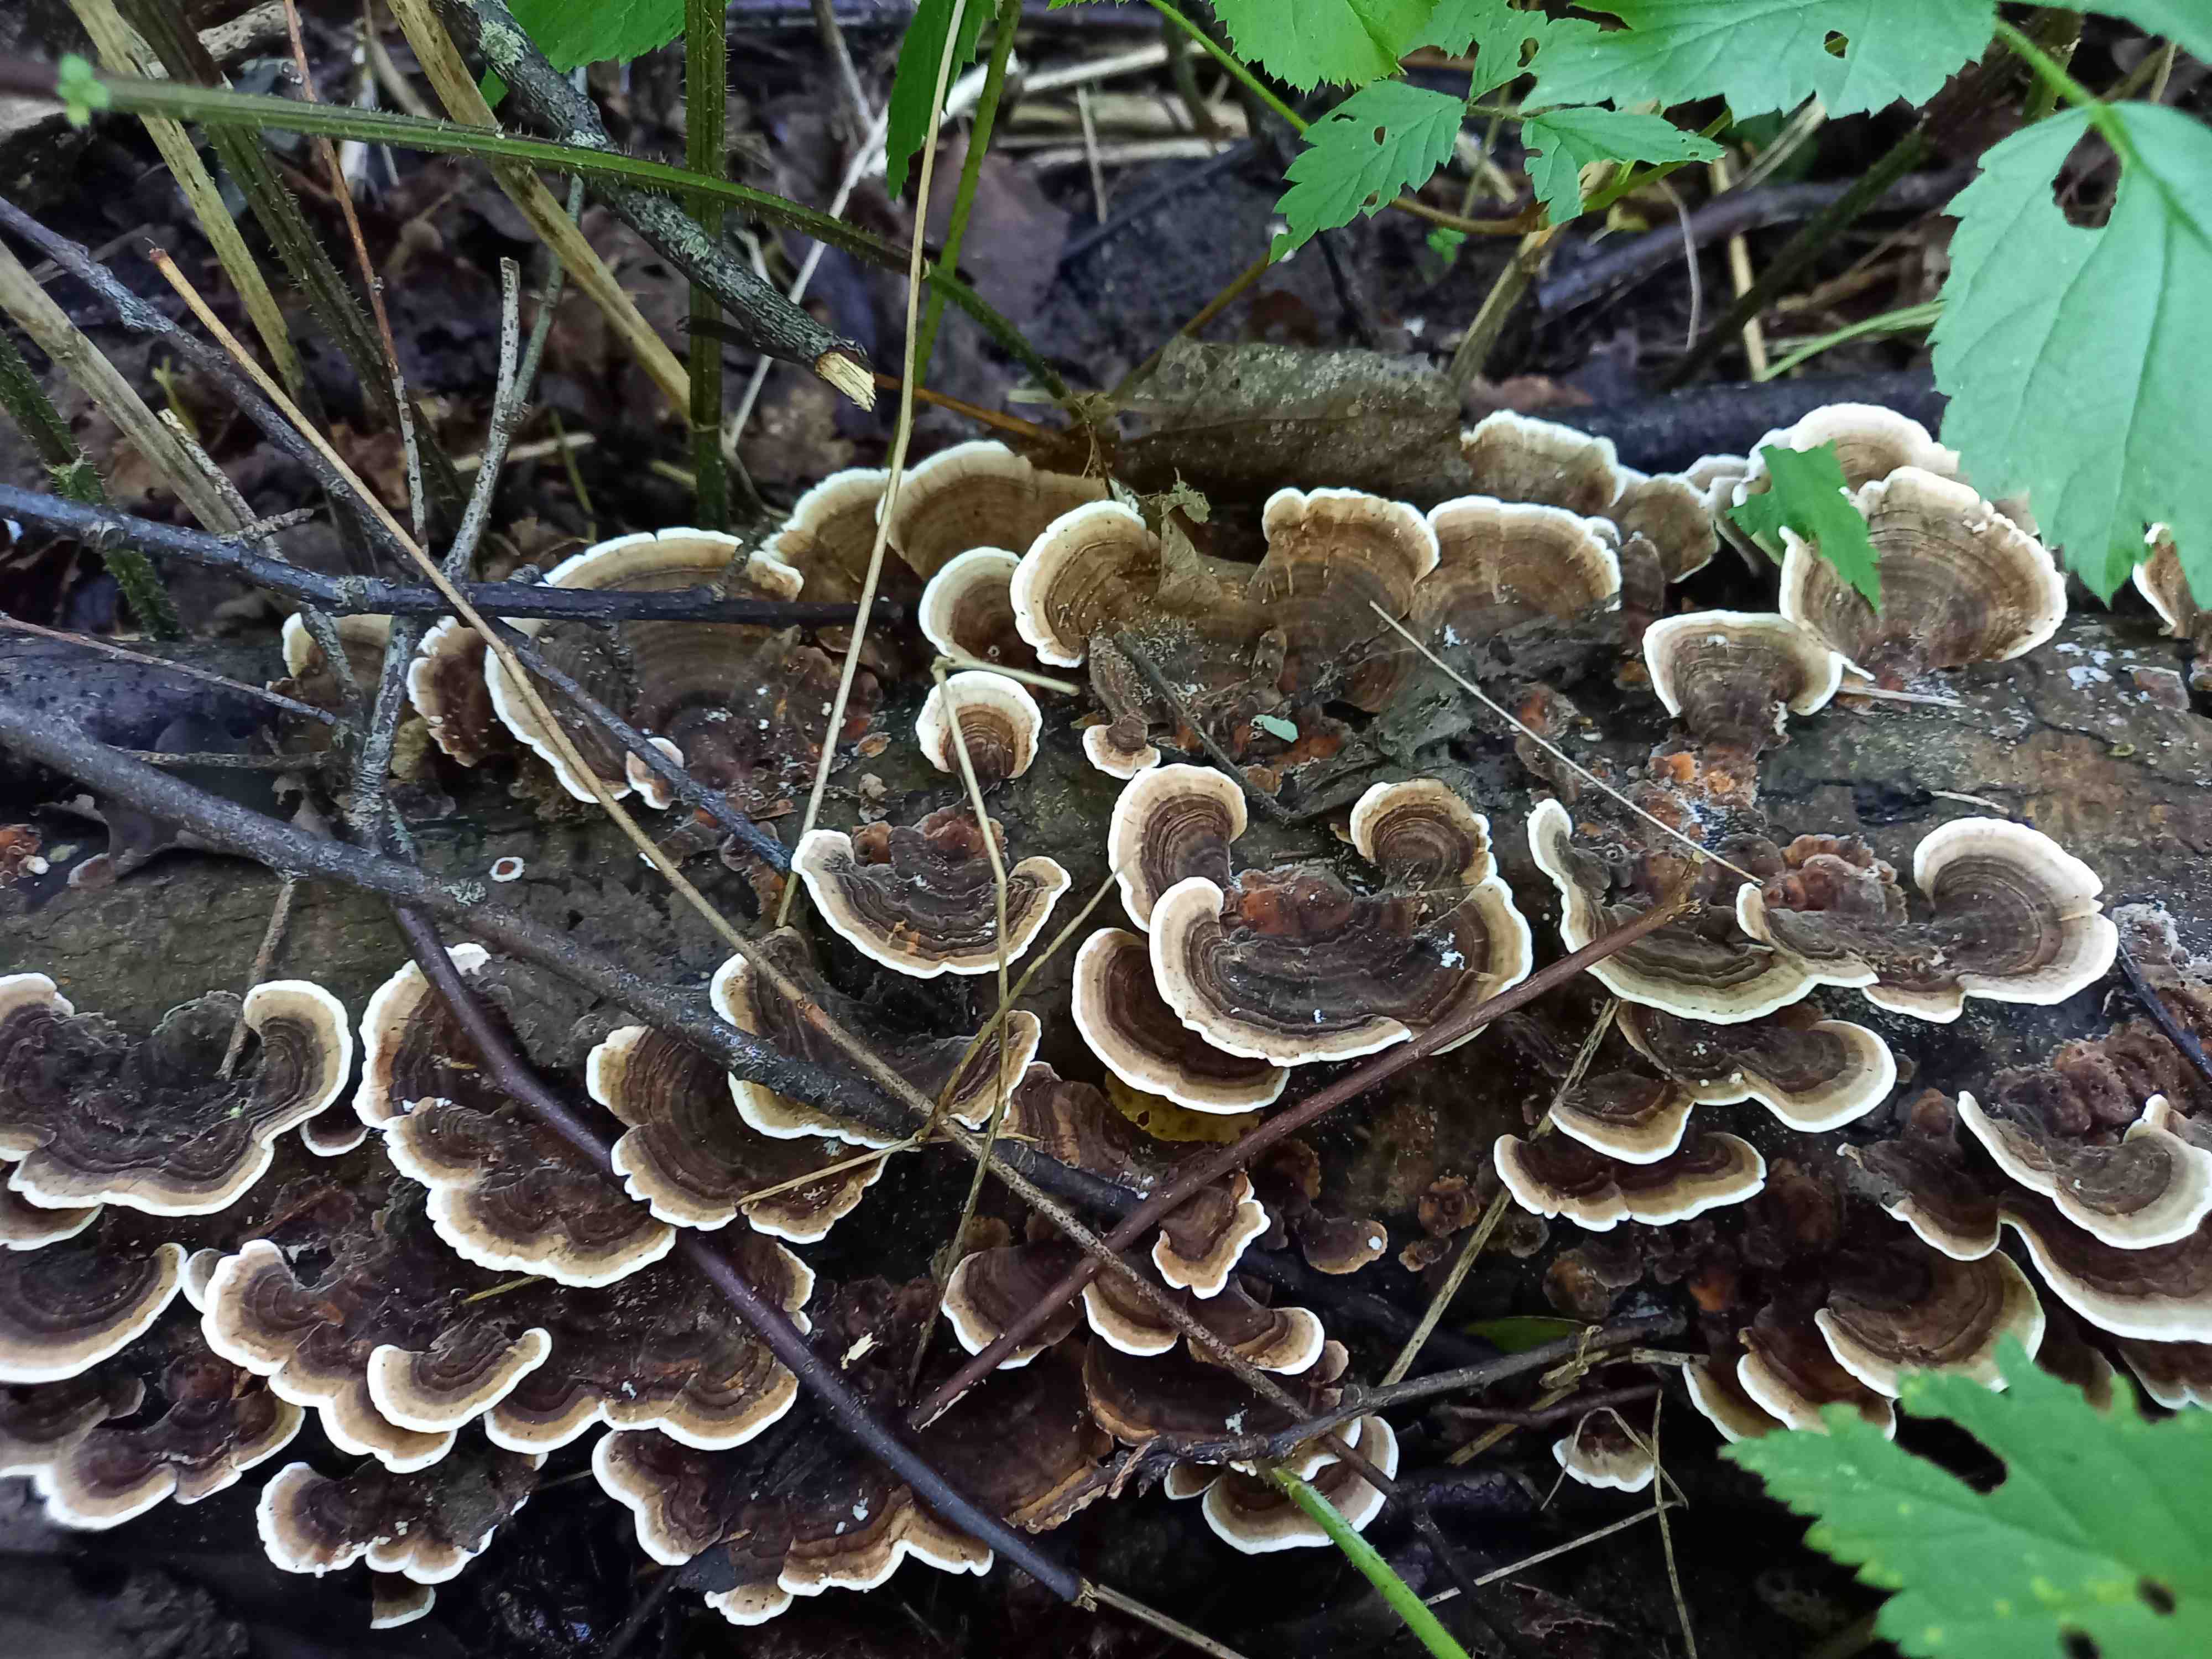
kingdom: Fungi
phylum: Basidiomycota
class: Agaricomycetes
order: Polyporales
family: Polyporaceae
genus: Trametes
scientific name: Trametes versicolor
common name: broget læderporesvamp
